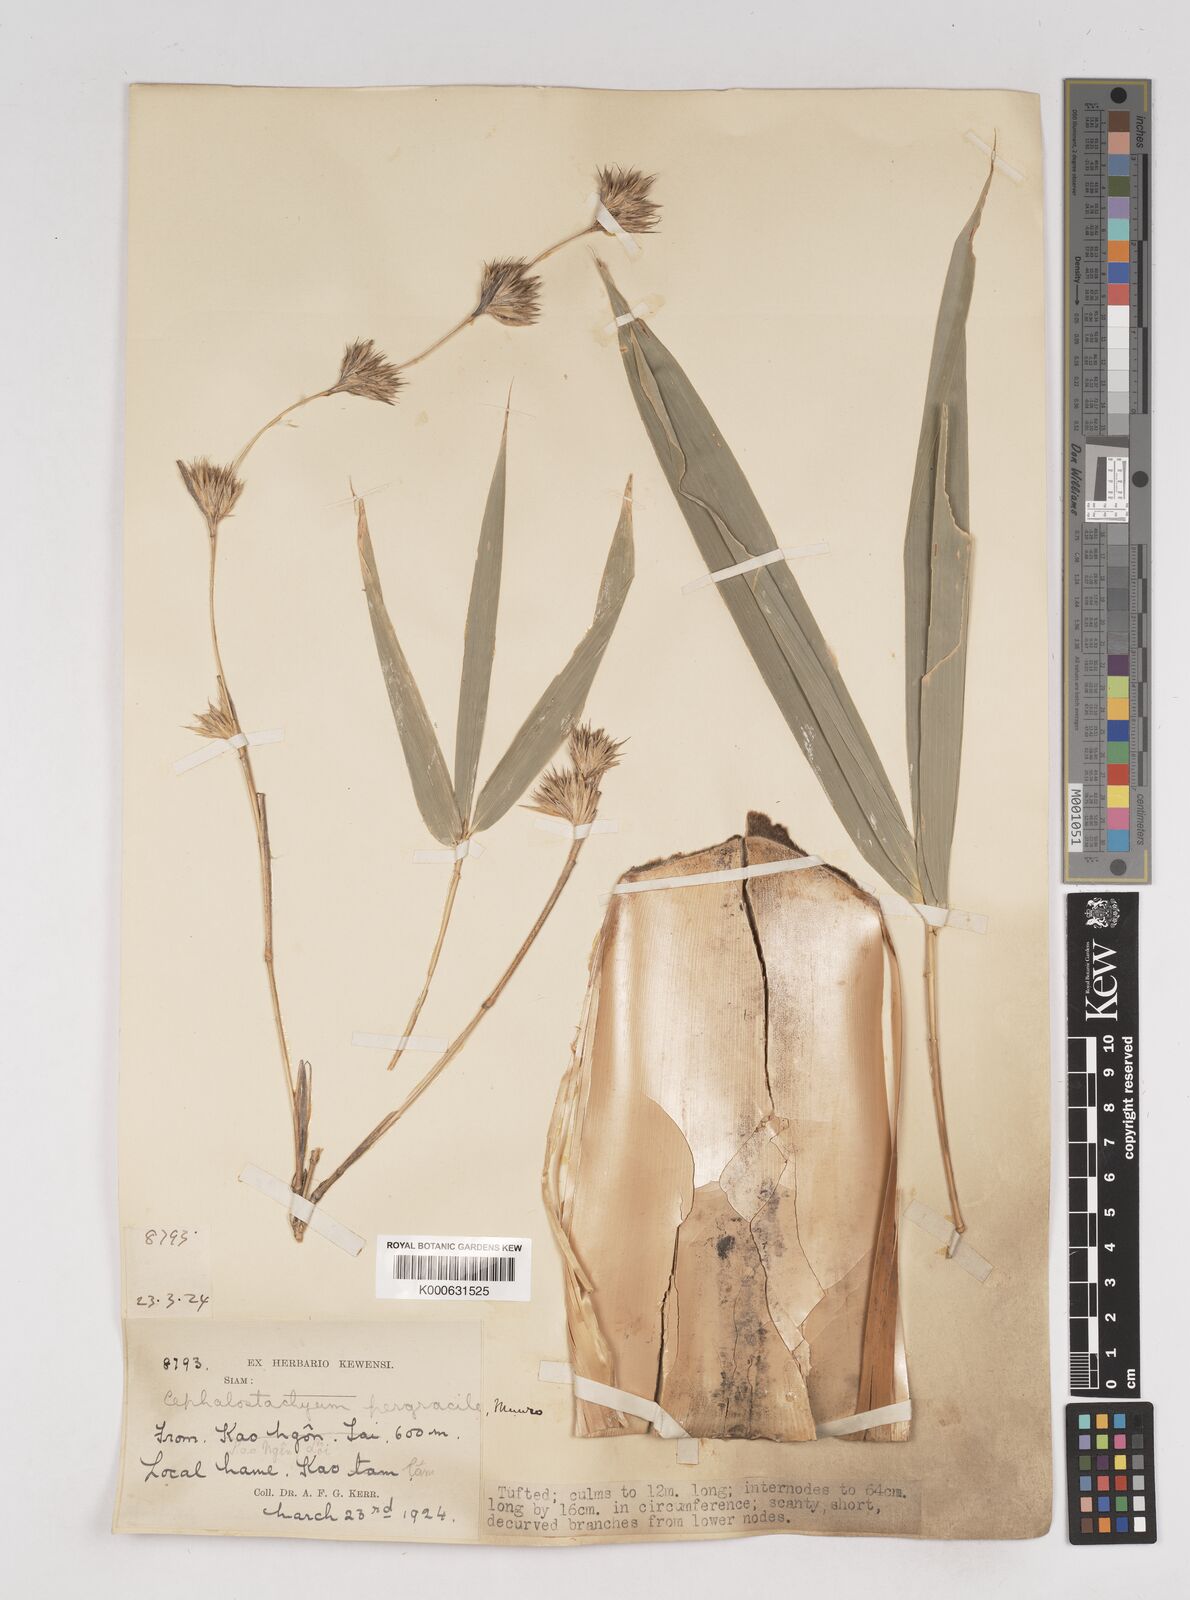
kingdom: Plantae
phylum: Tracheophyta
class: Liliopsida
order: Poales
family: Poaceae
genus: Schizostachyum
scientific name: Schizostachyum pergracile
